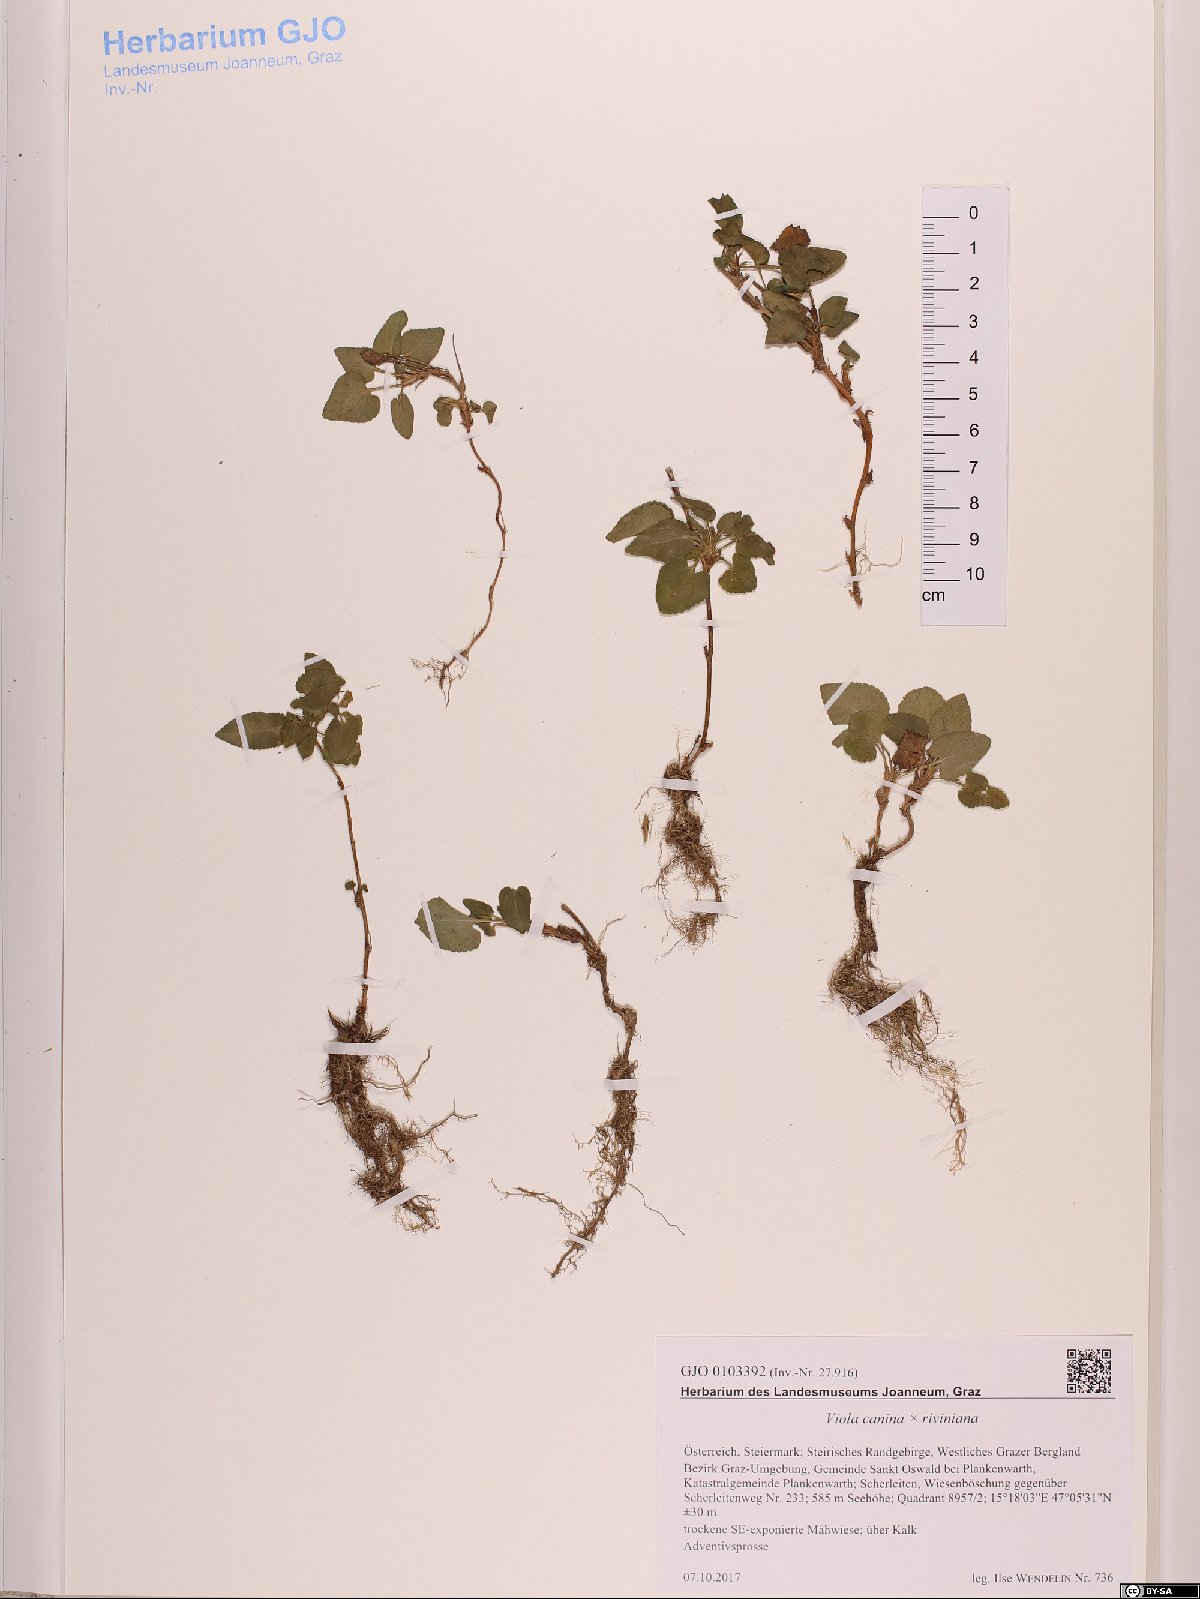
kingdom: Plantae
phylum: Tracheophyta
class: Magnoliopsida
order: Malpighiales
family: Violaceae
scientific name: Violaceae
